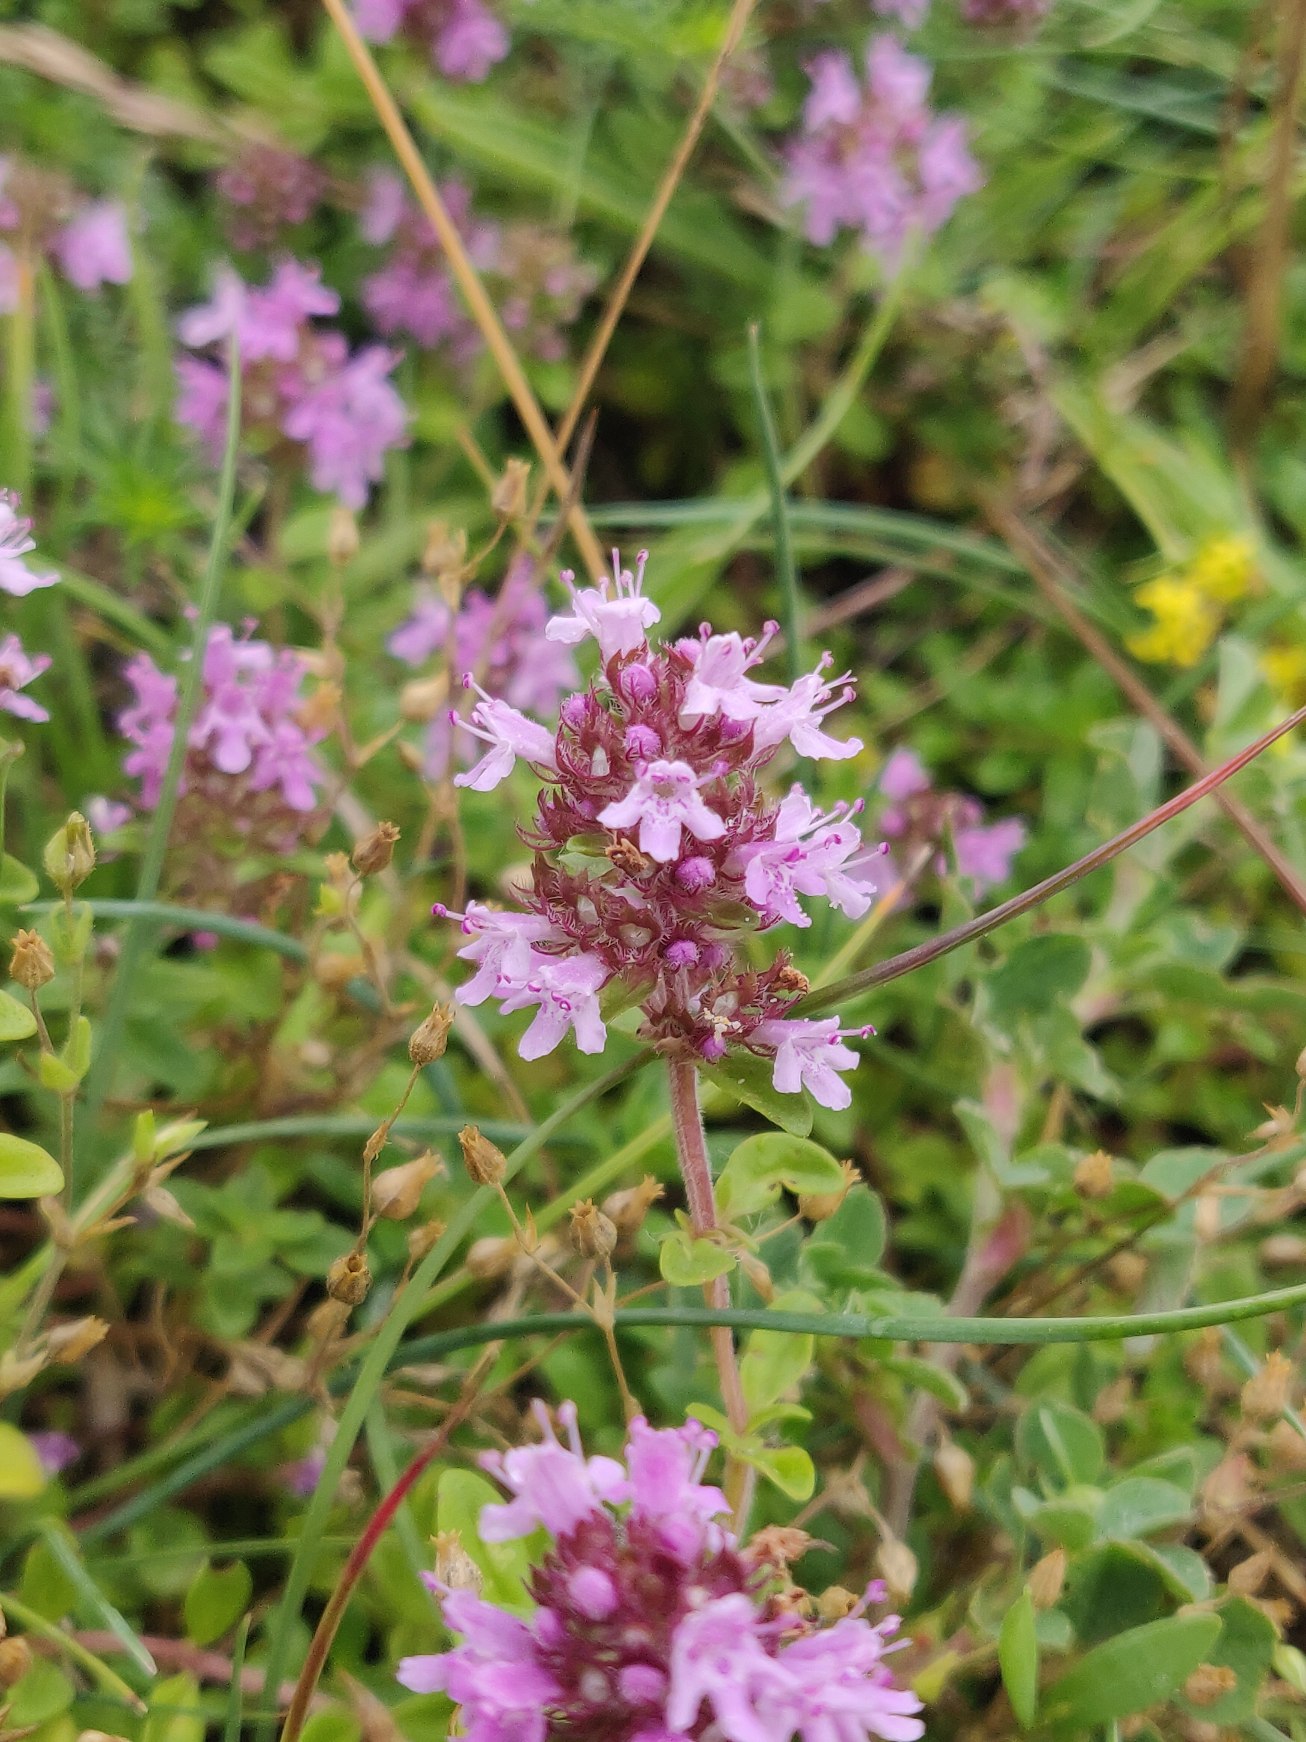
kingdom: Plantae
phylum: Tracheophyta
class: Magnoliopsida
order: Lamiales
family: Lamiaceae
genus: Thymus
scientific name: Thymus pulegioides
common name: Bredbladet timian
